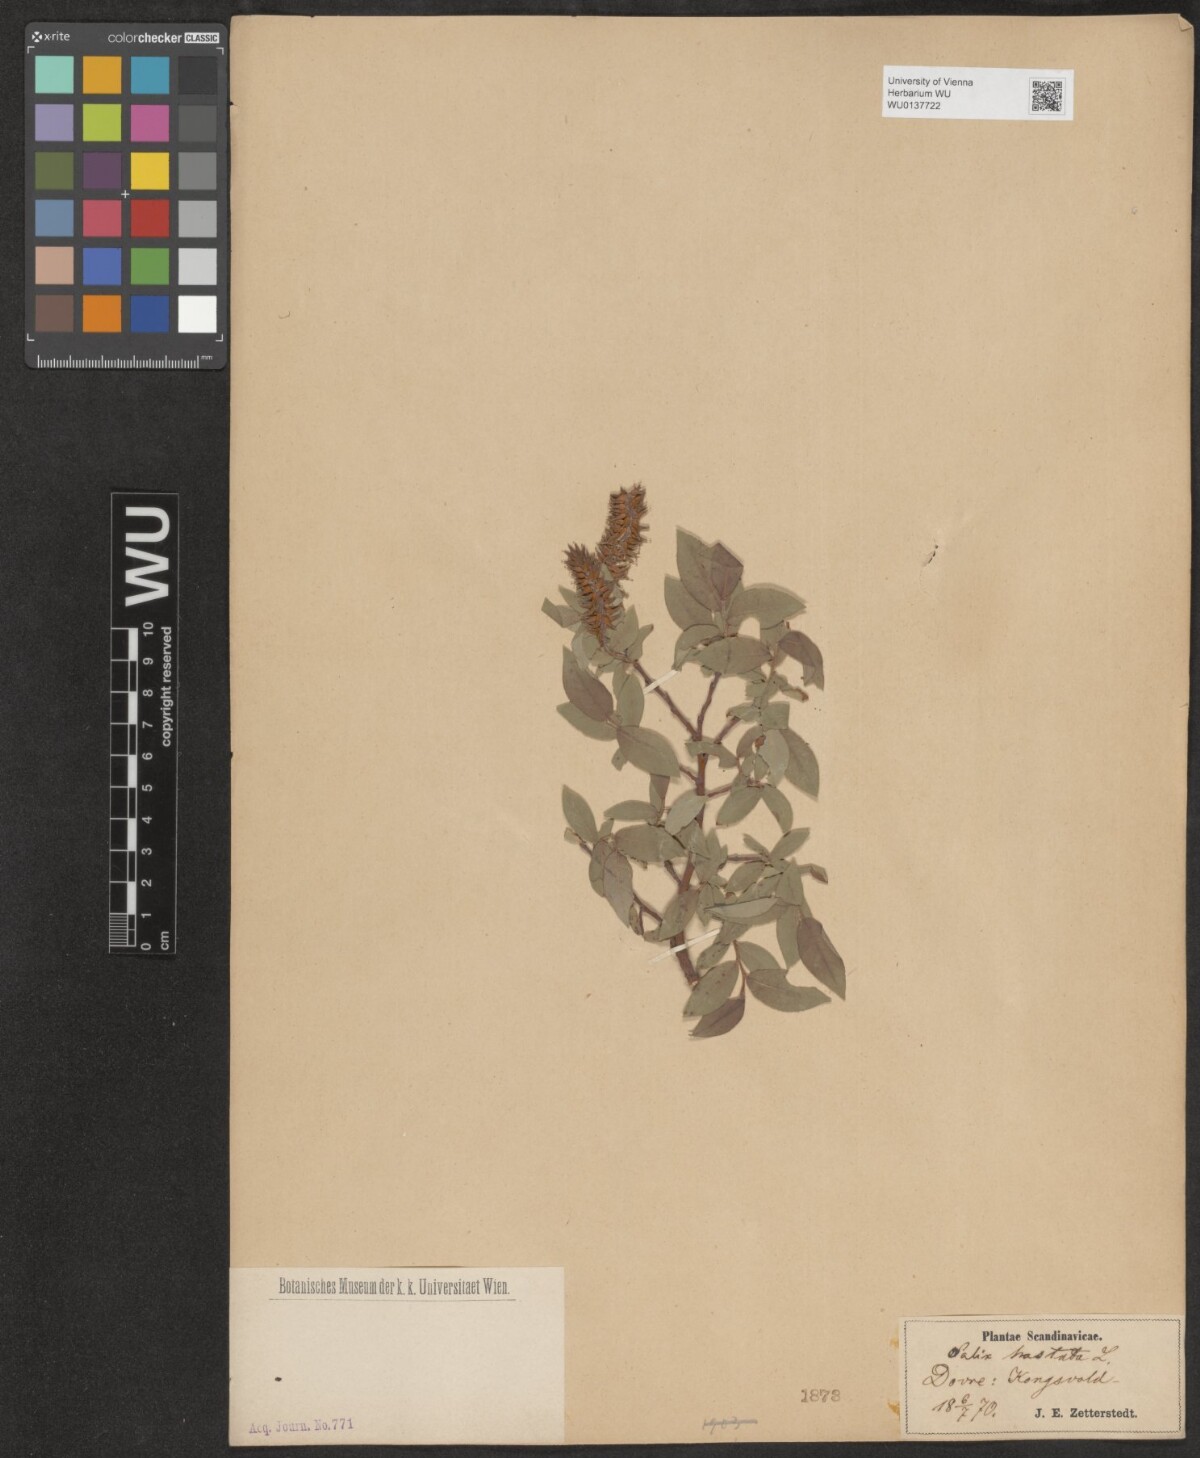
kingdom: Plantae
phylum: Tracheophyta
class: Magnoliopsida
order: Malpighiales
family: Salicaceae
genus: Salix
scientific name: Salix hastata
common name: Halberd willow
